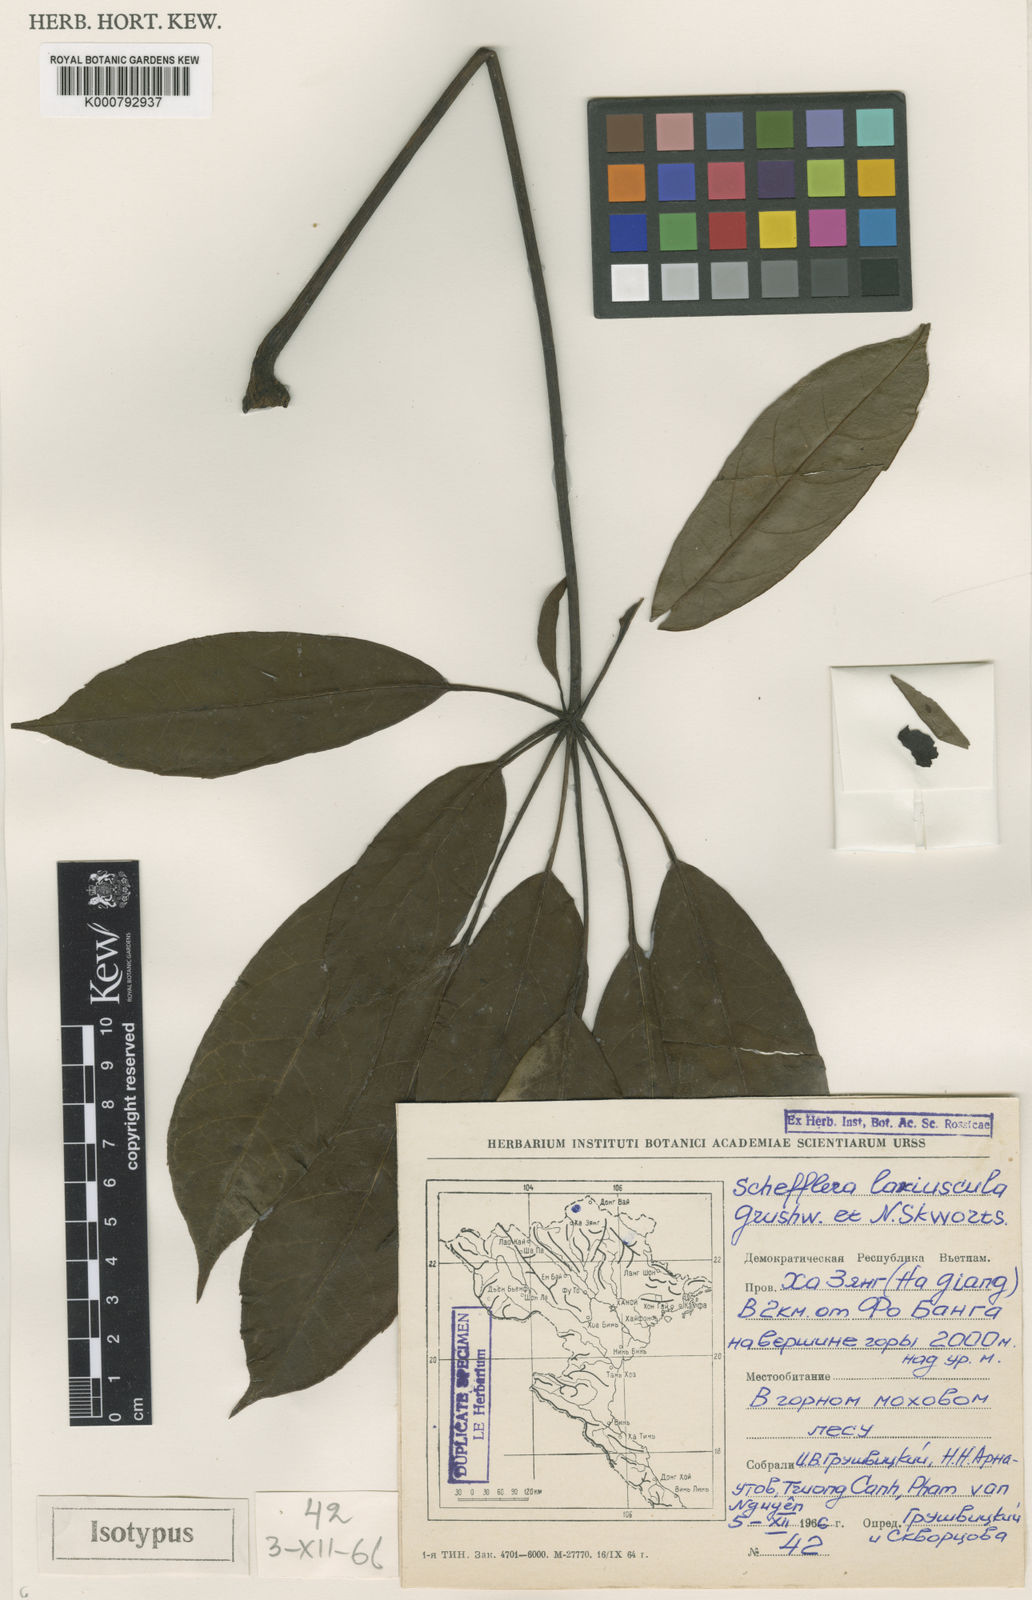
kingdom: Plantae
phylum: Tracheophyta
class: Magnoliopsida
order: Apiales
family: Araliaceae
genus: Heptapleurum
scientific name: Heptapleurum laxiusculum
